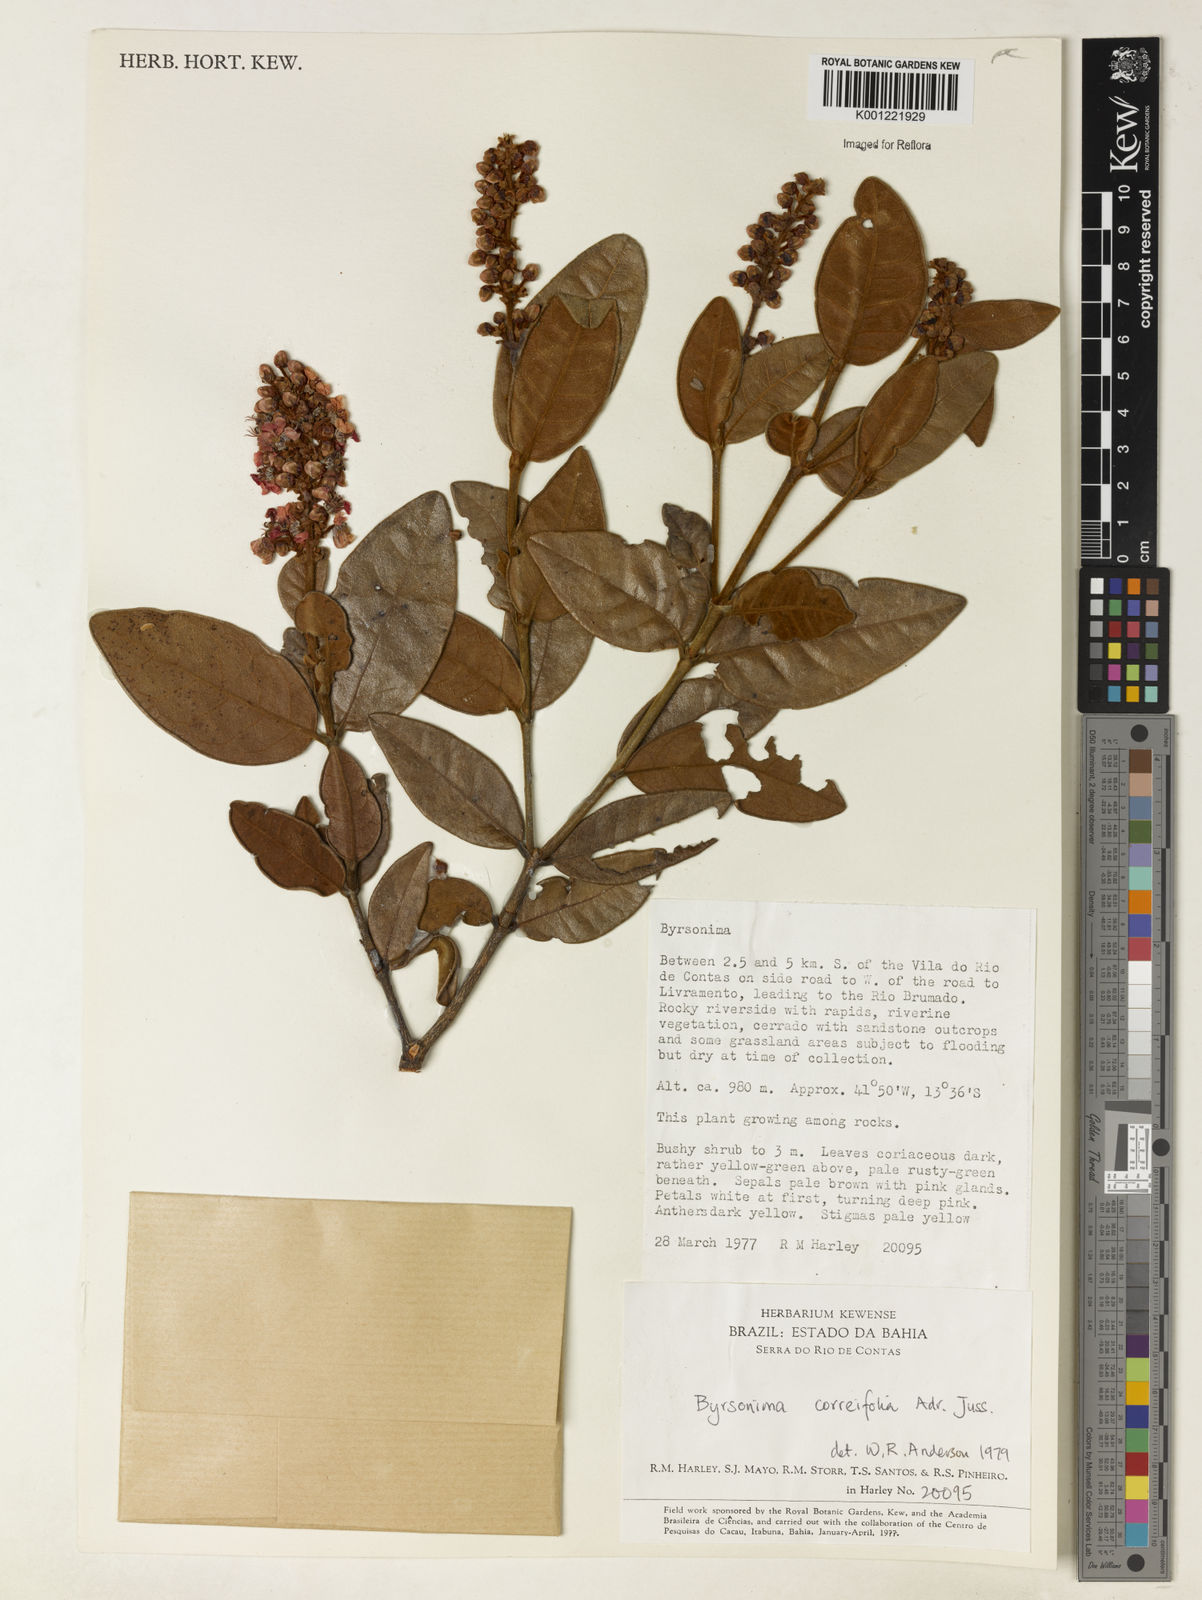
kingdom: Plantae
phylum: Tracheophyta
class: Magnoliopsida
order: Malpighiales
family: Malpighiaceae
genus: Byrsonima
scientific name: Byrsonima correifolia
